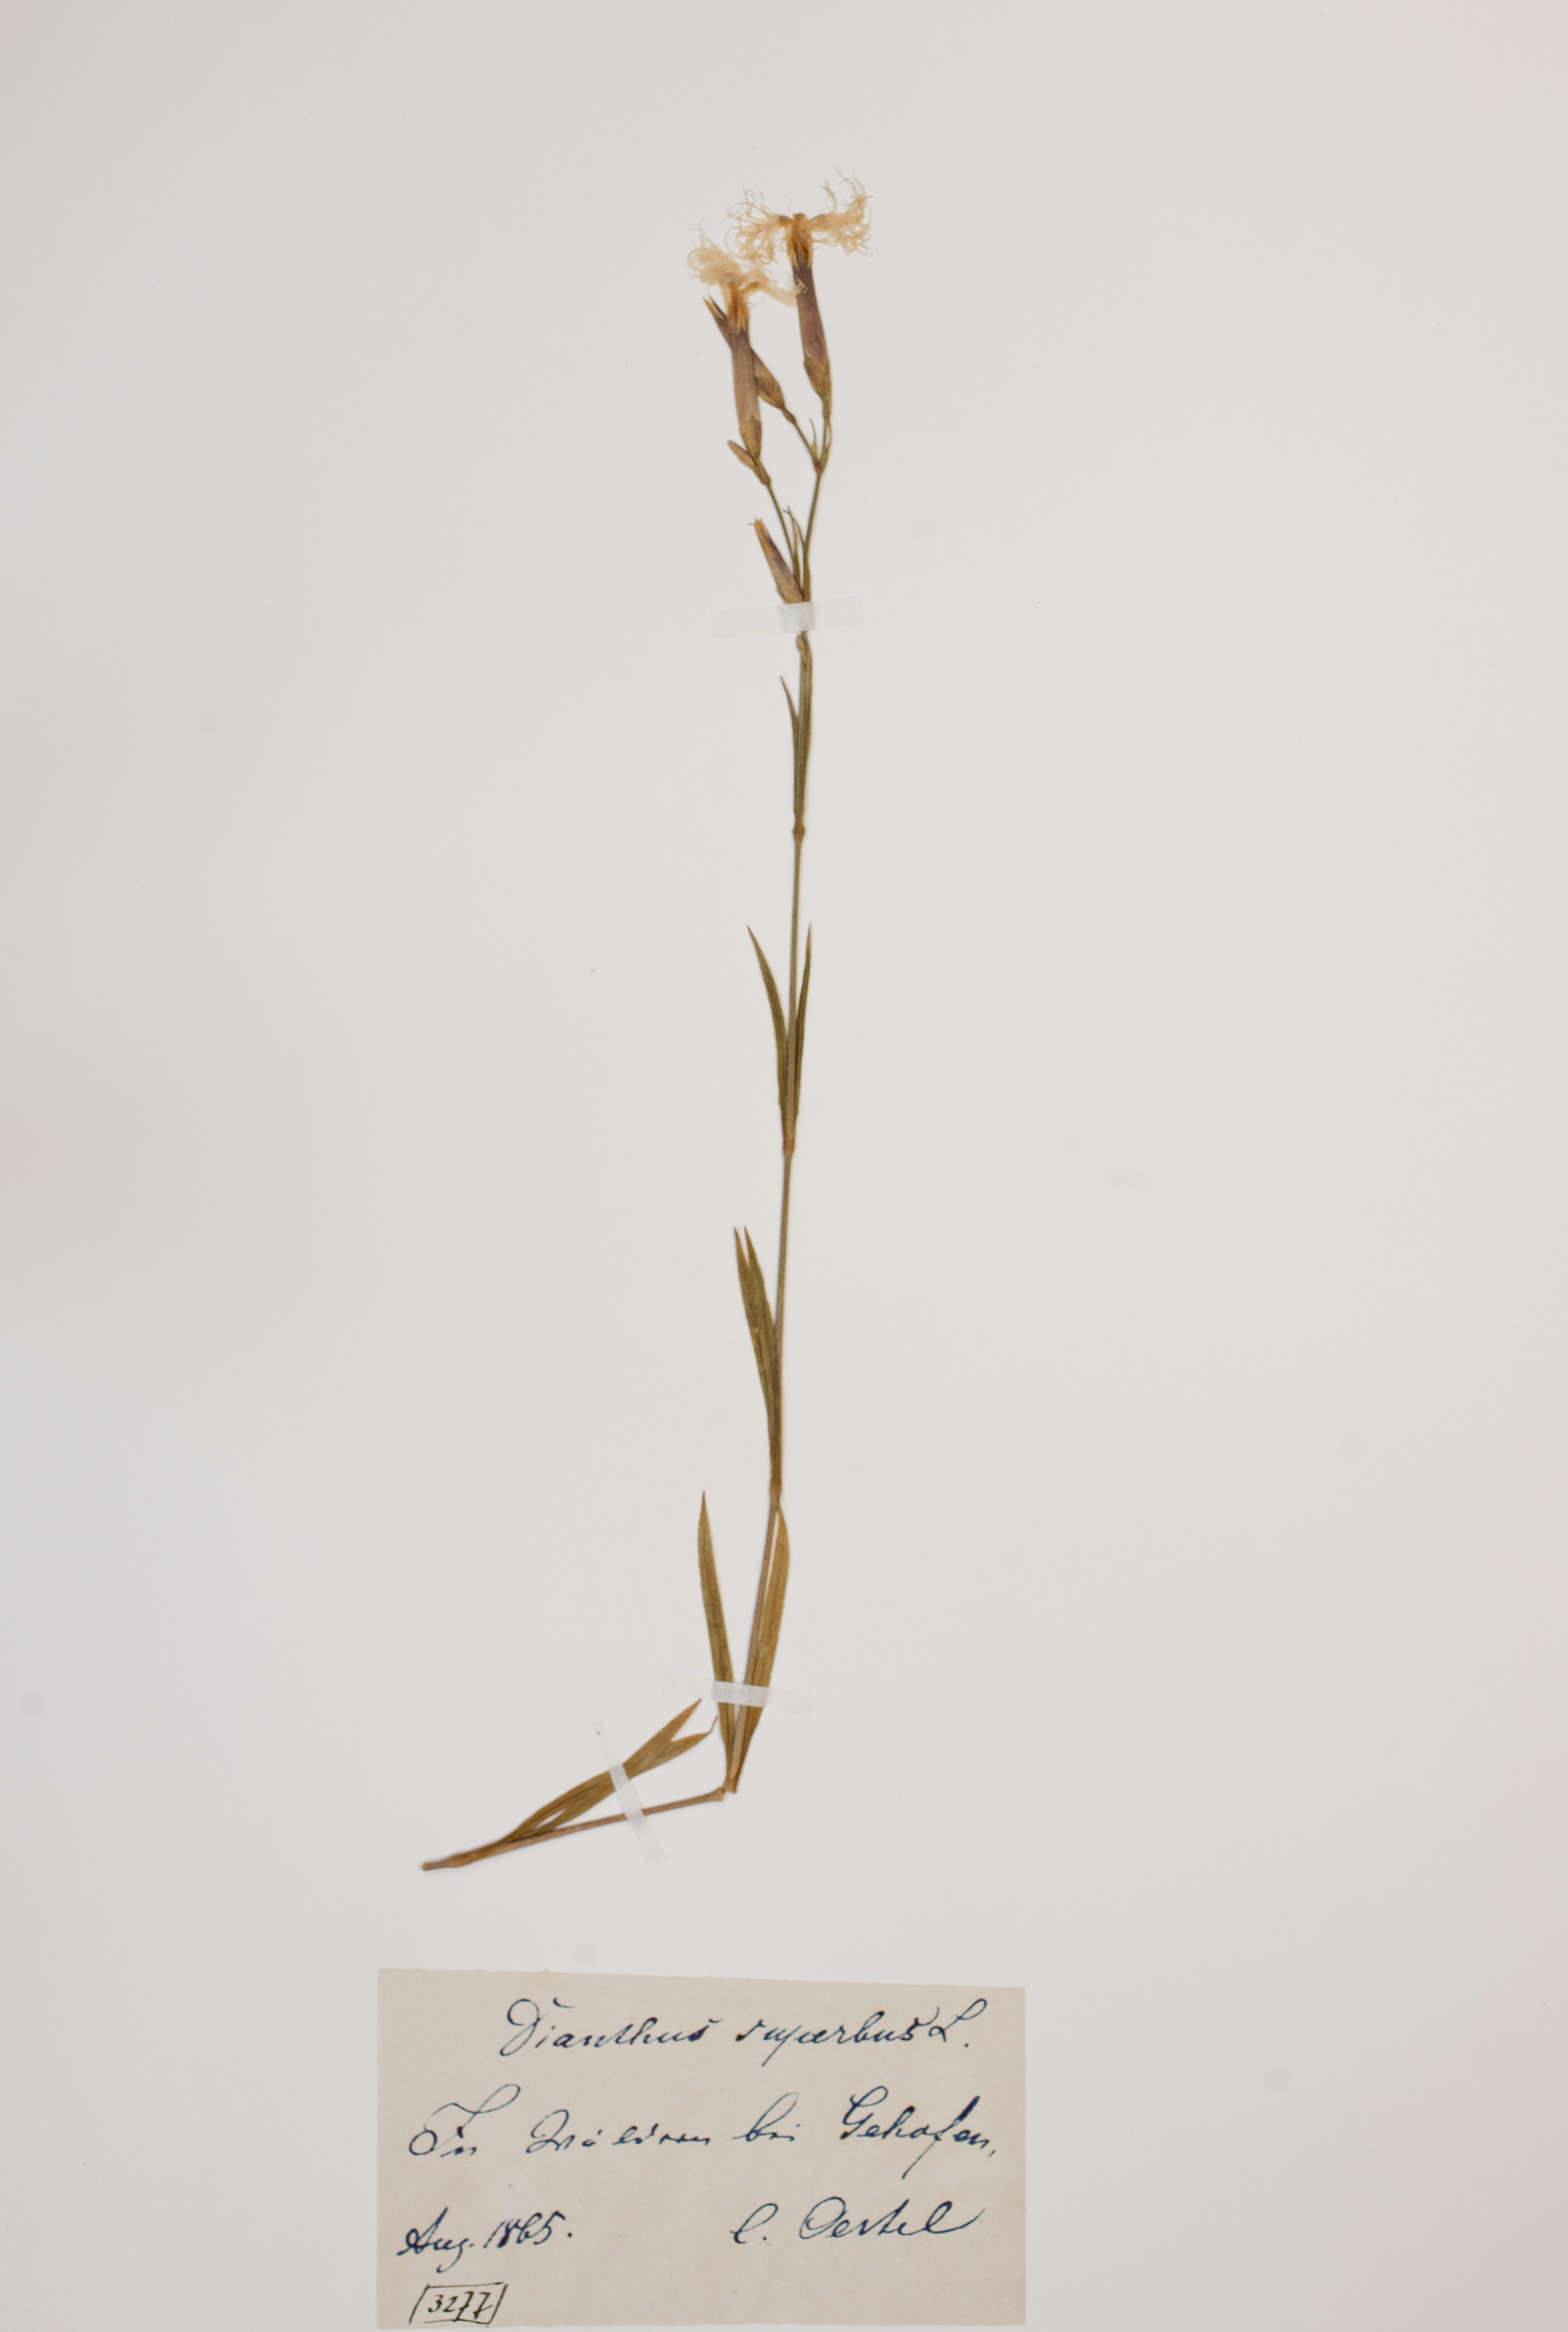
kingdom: Plantae
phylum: Tracheophyta
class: Magnoliopsida
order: Caryophyllales
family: Caryophyllaceae
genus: Dianthus
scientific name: Dianthus superbus
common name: Fringed pink
